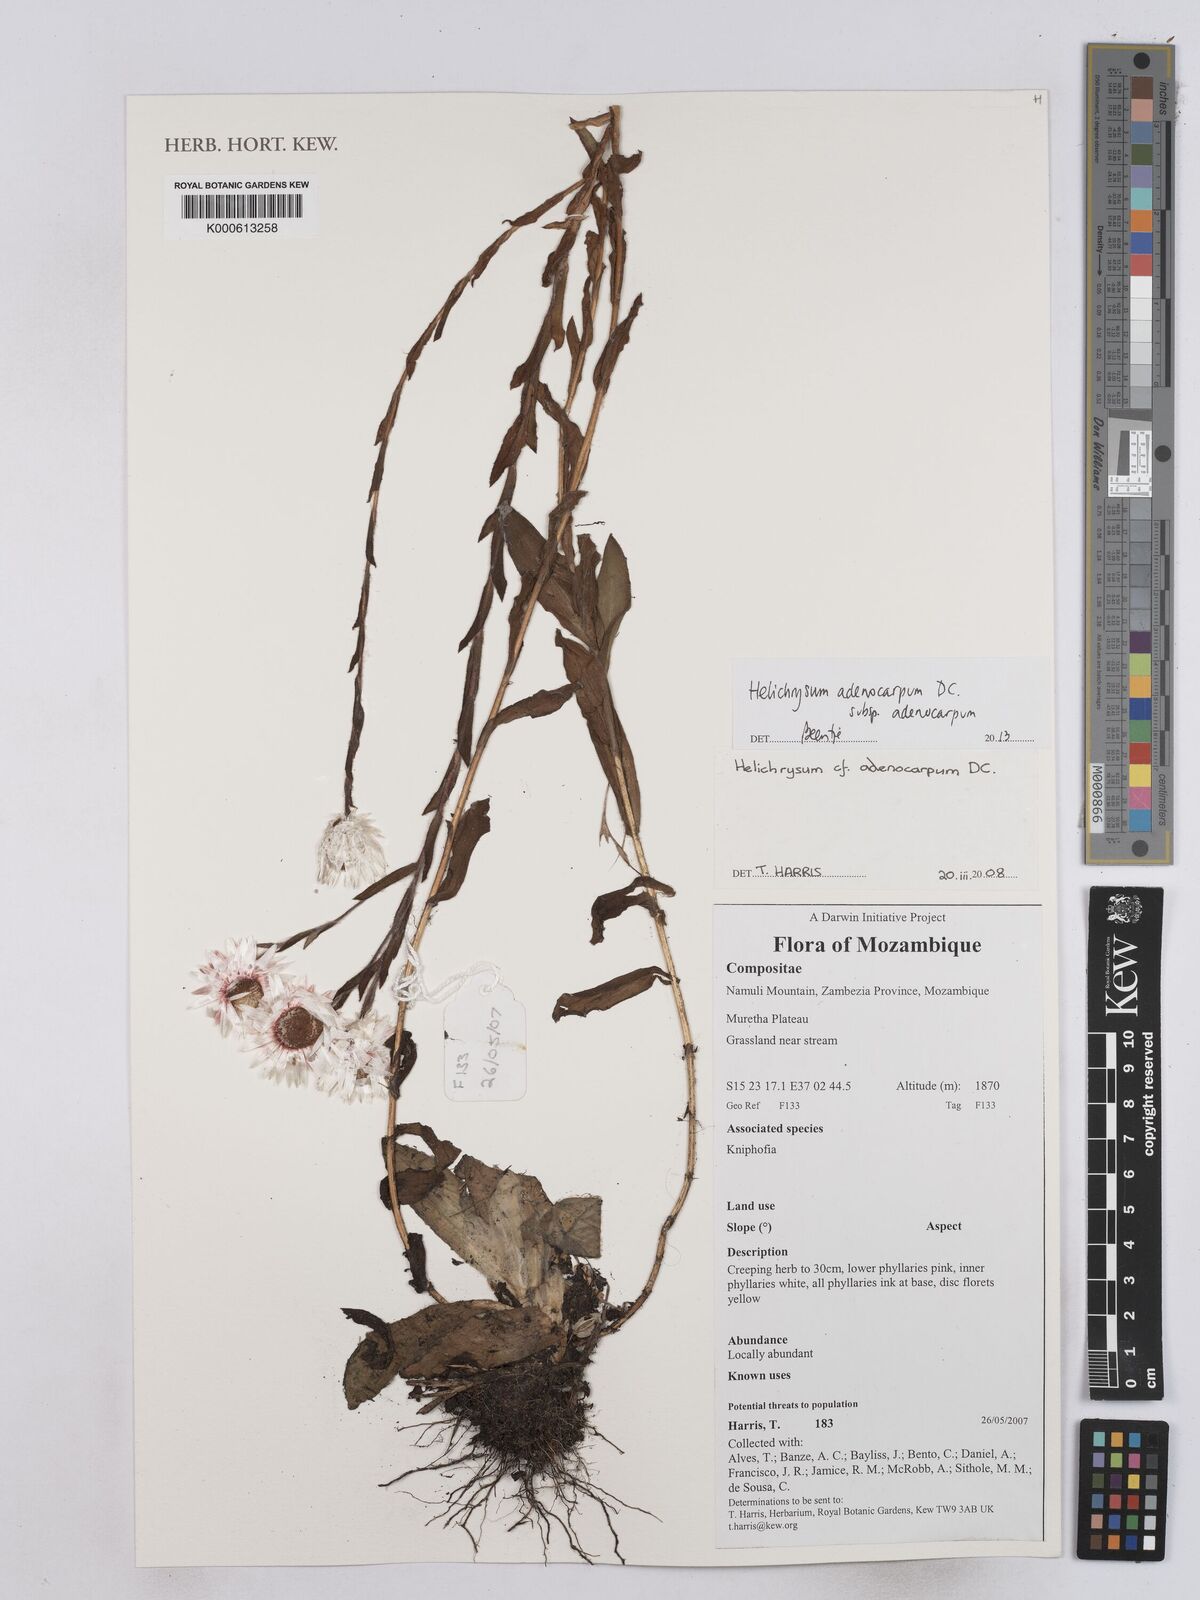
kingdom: Plantae
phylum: Tracheophyta
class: Magnoliopsida
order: Asterales
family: Asteraceae
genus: Helichrysum
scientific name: Helichrysum adenocarpum
